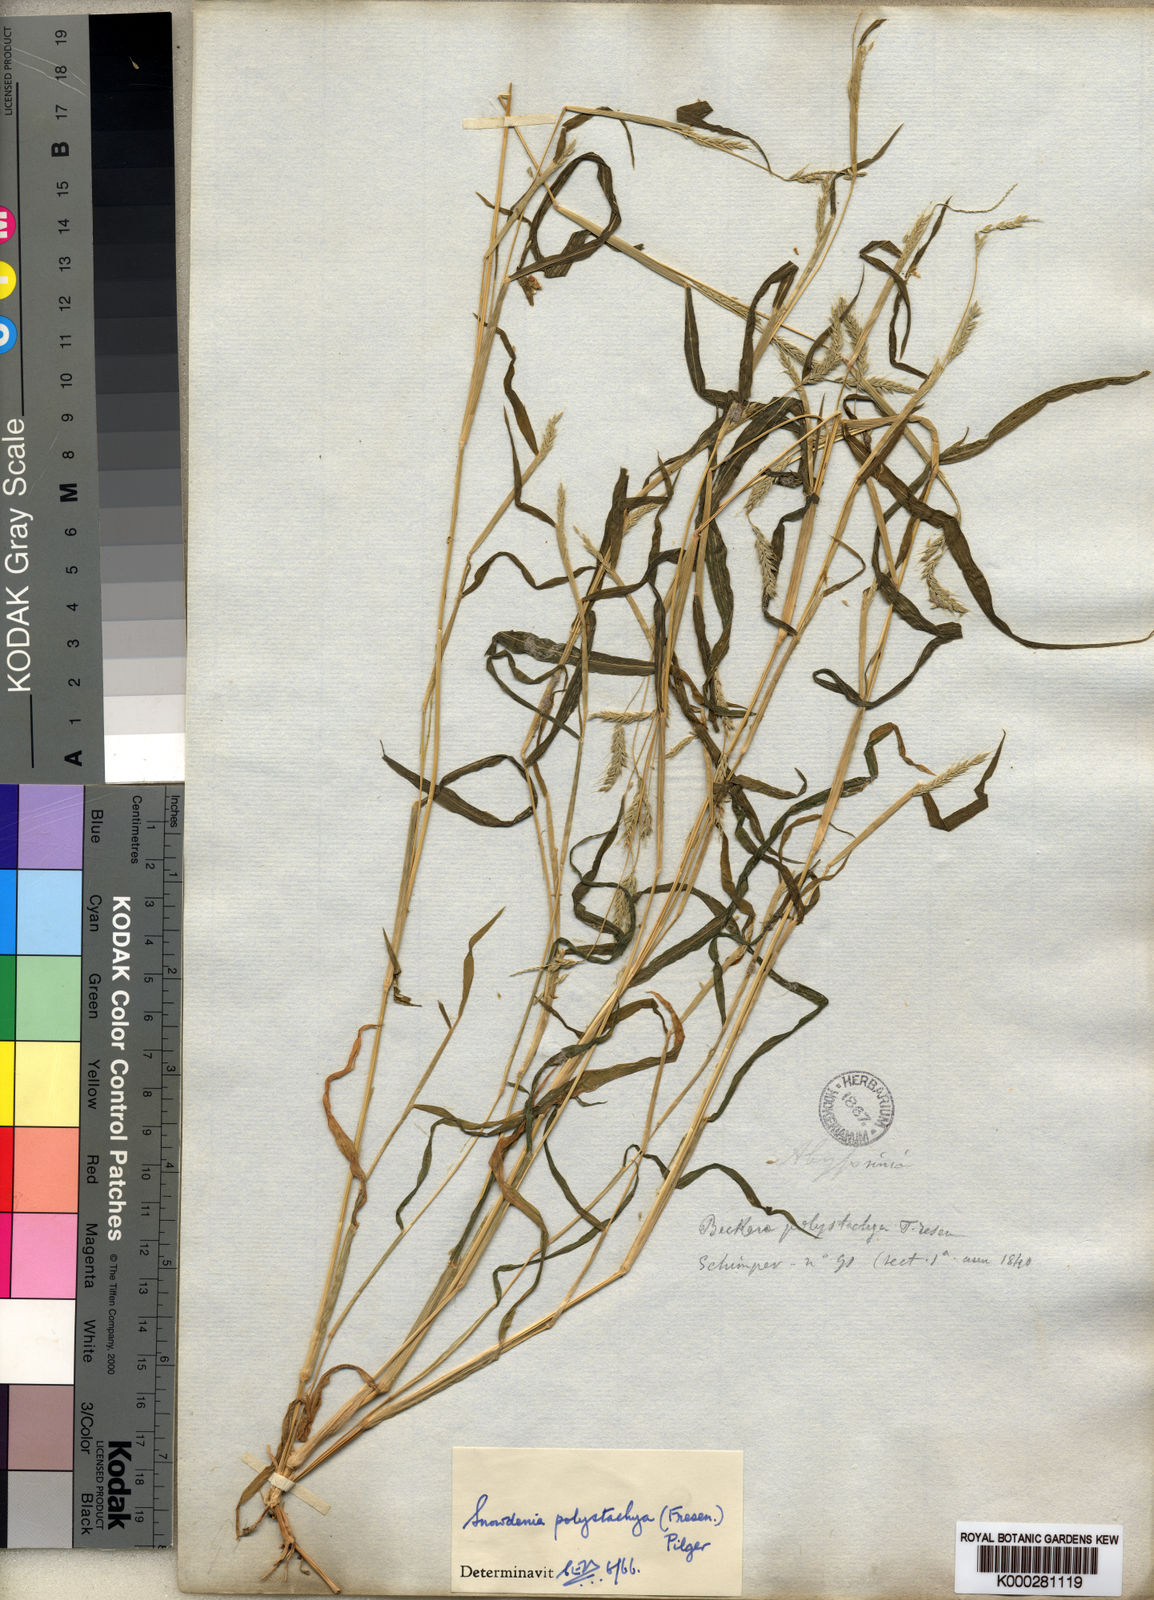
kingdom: Plantae
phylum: Tracheophyta
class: Liliopsida
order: Poales
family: Poaceae
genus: Snowdenia
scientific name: Snowdenia polystachya
